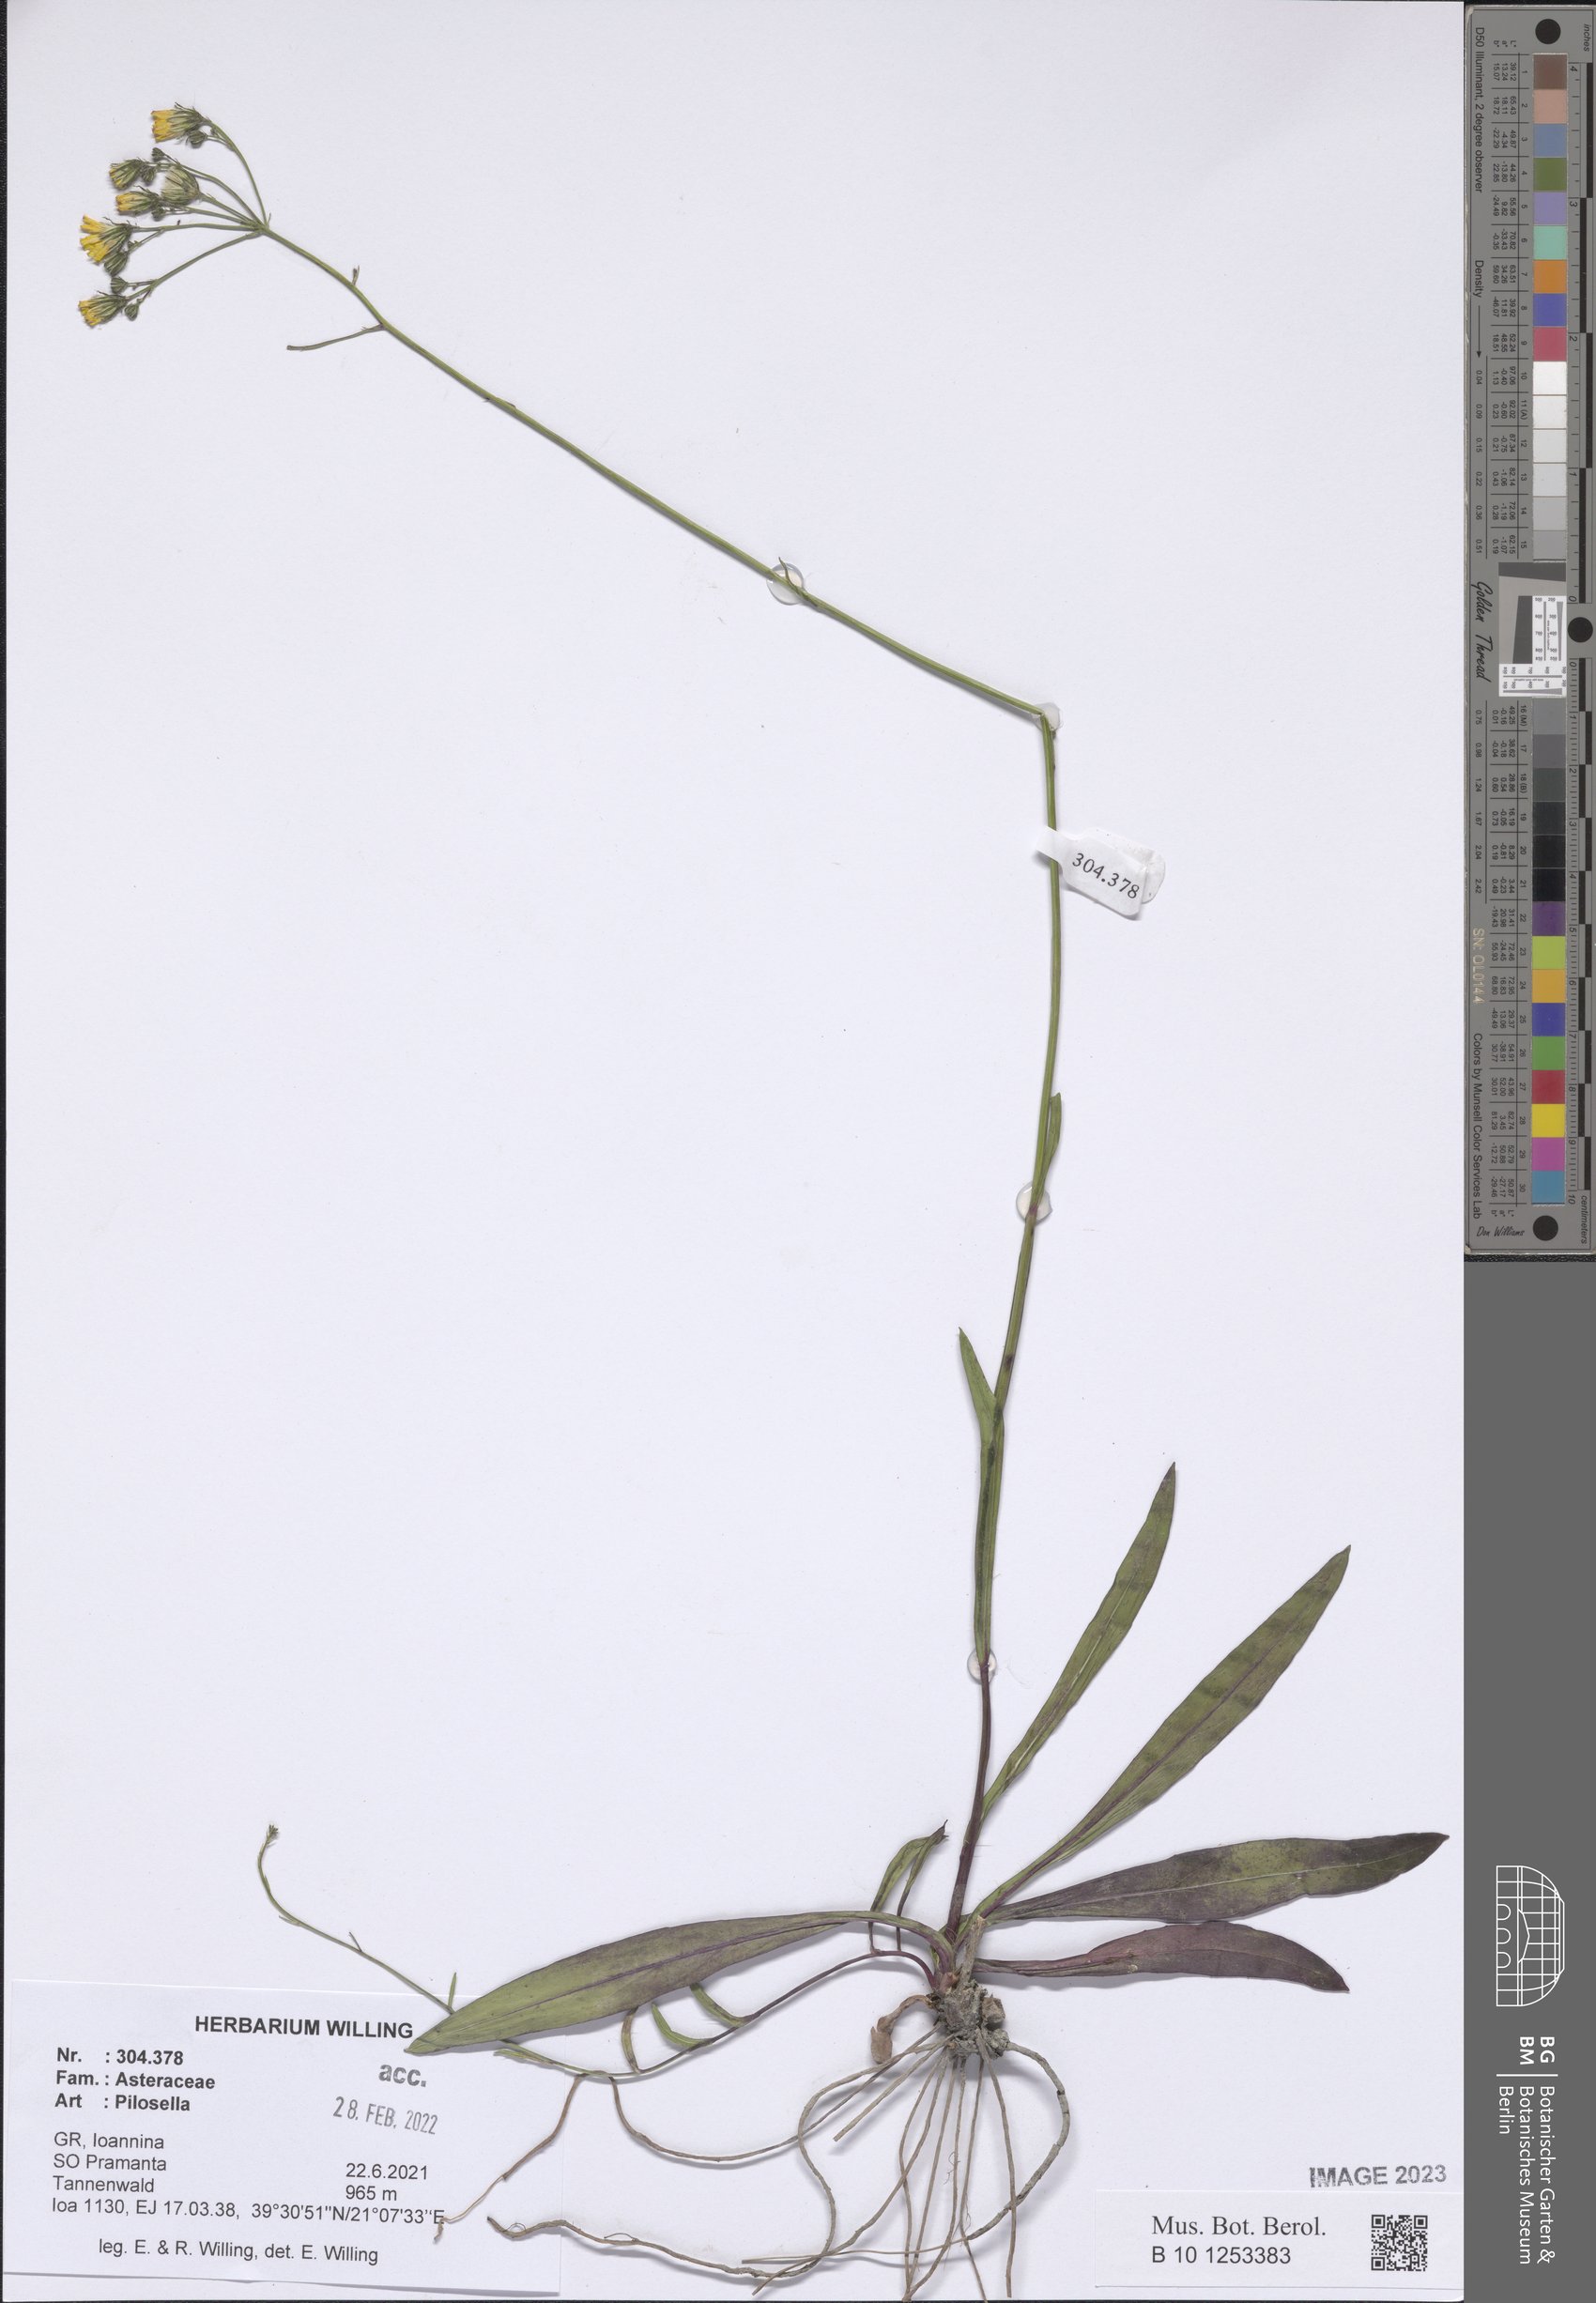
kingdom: Plantae
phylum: Tracheophyta
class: Magnoliopsida
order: Asterales
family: Asteraceae
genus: Pilosella
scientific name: Pilosella
